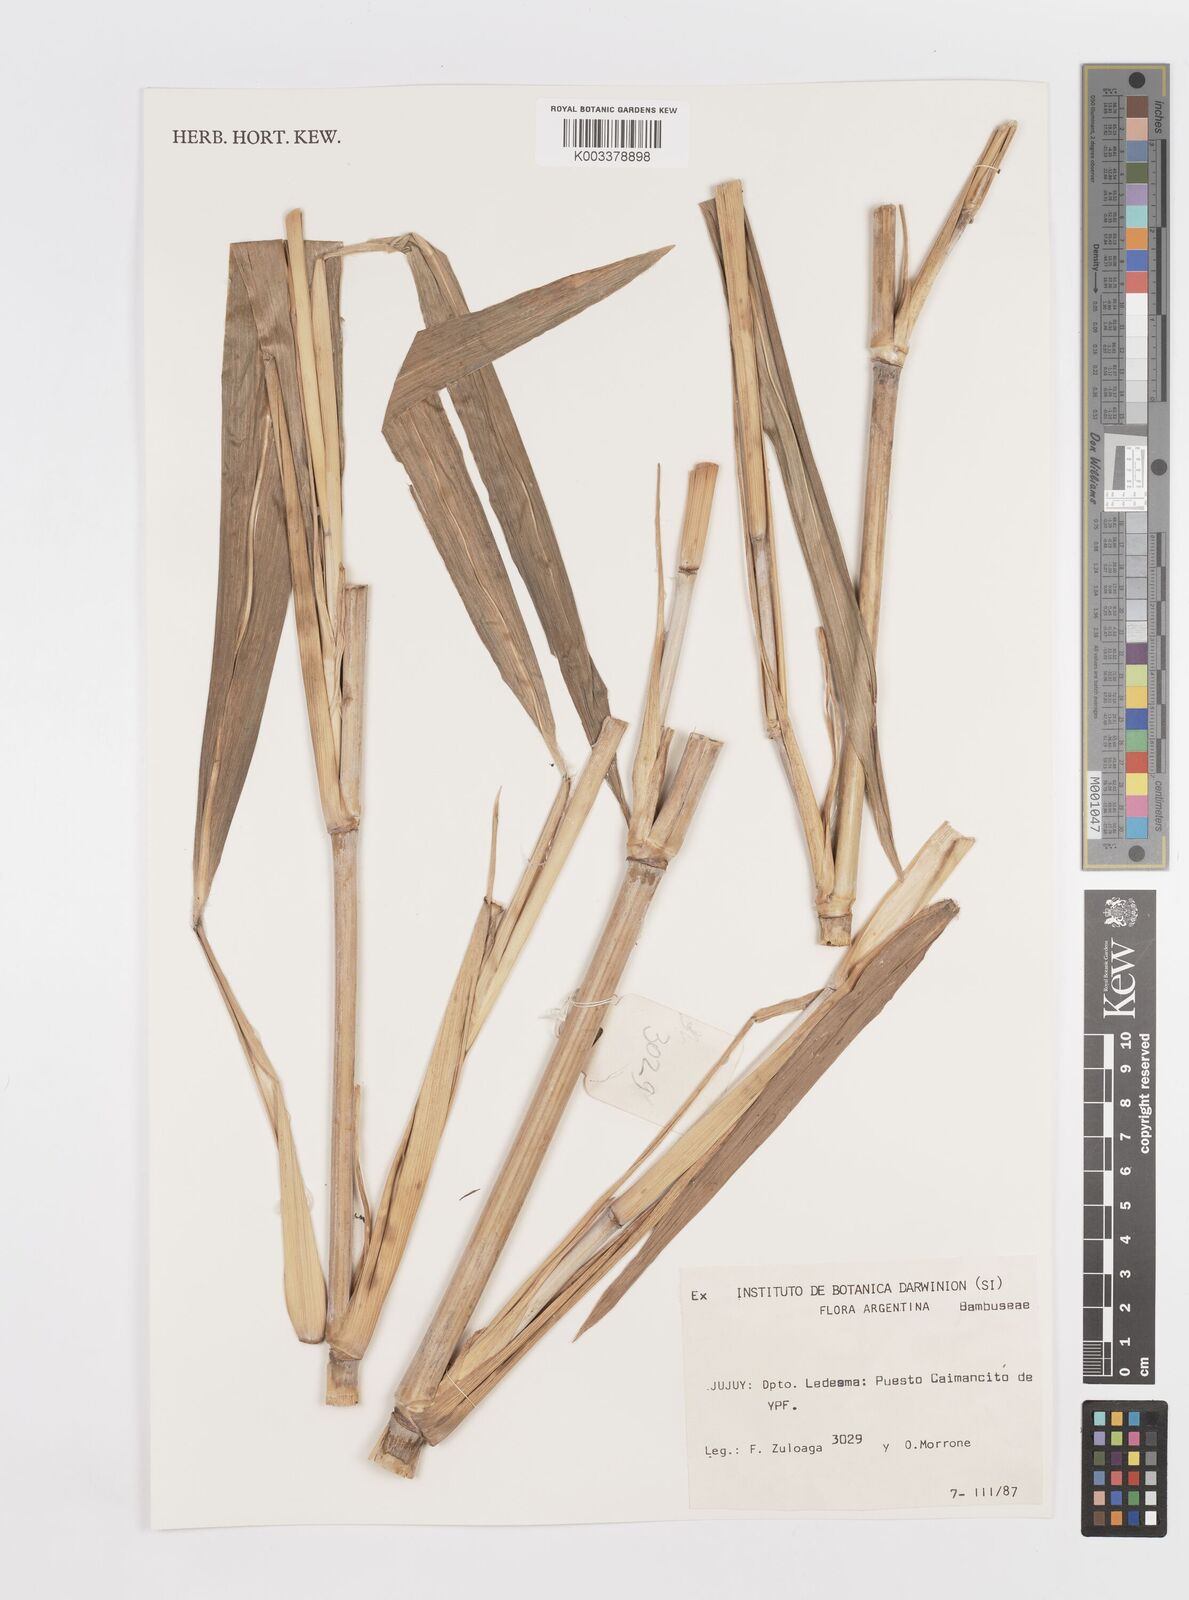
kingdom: Plantae
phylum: Tracheophyta
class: Liliopsida
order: Poales
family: Poaceae
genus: Lasiacis
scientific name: Lasiacis maculata
